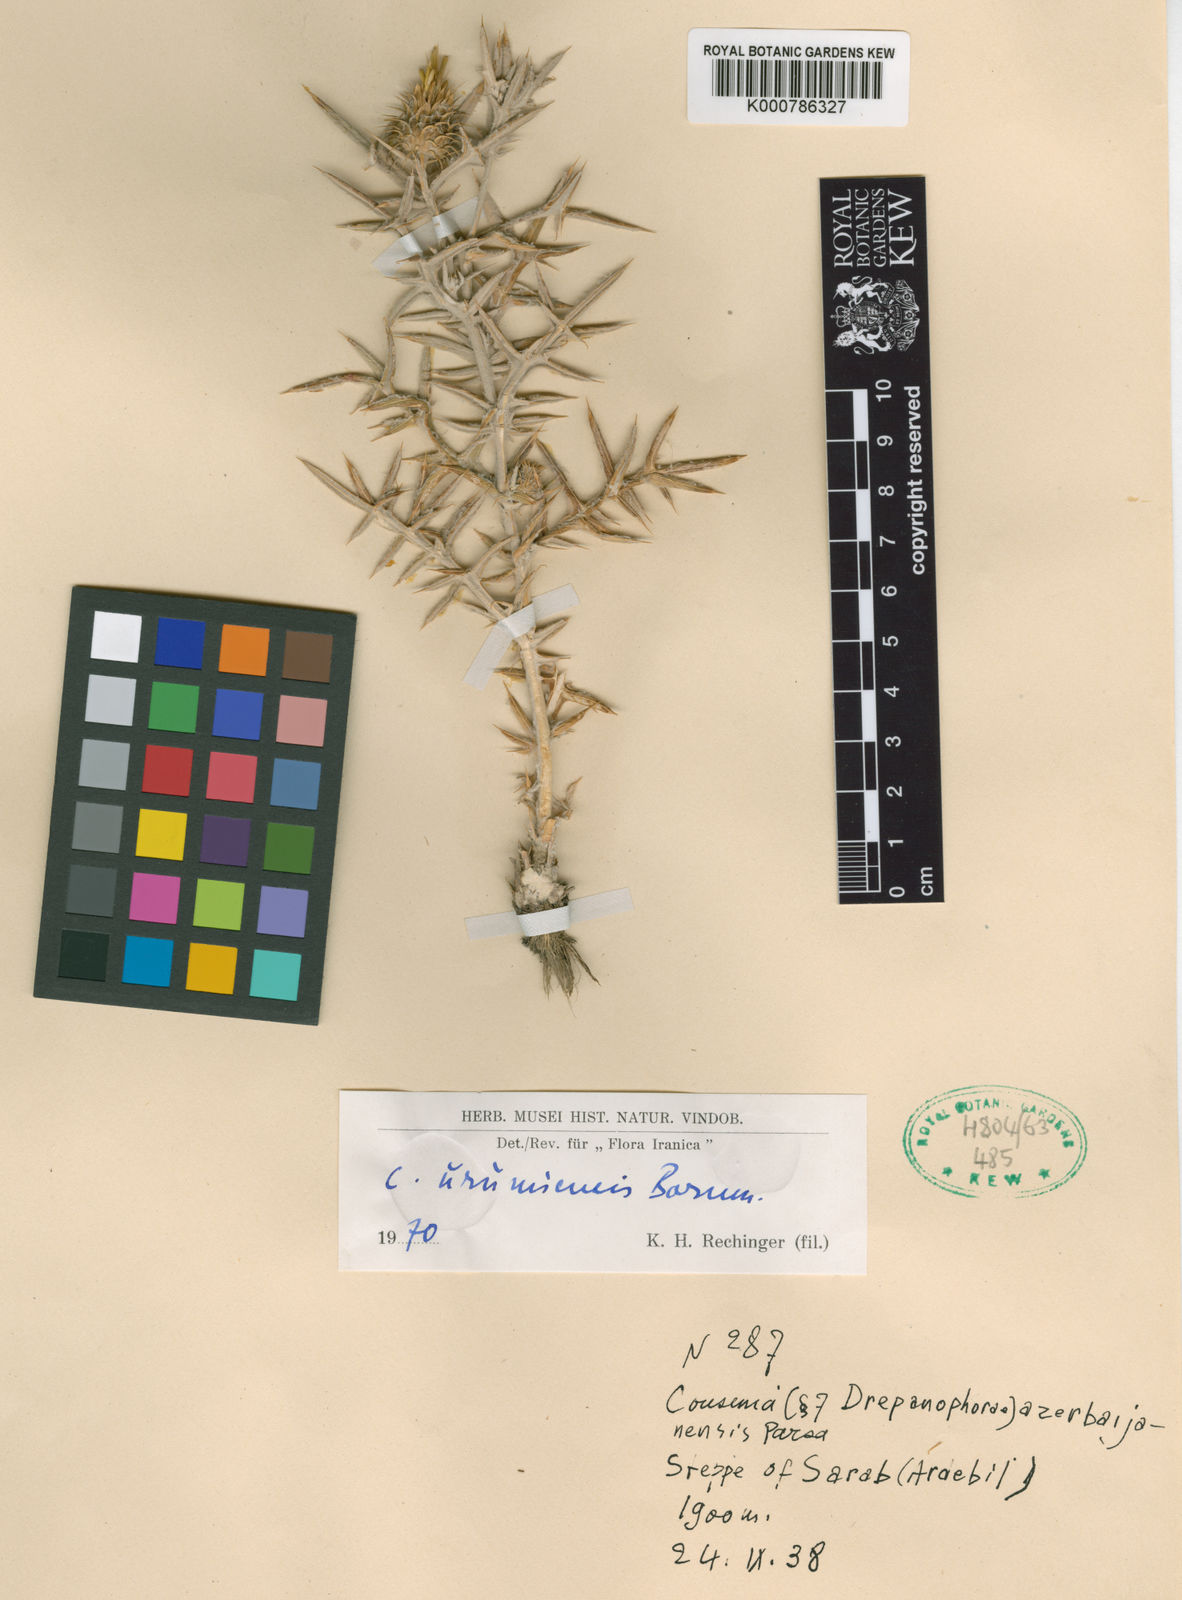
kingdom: Plantae
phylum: Tracheophyta
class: Magnoliopsida
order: Asterales
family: Asteraceae
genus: Cousinia
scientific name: Cousinia urumiensis
